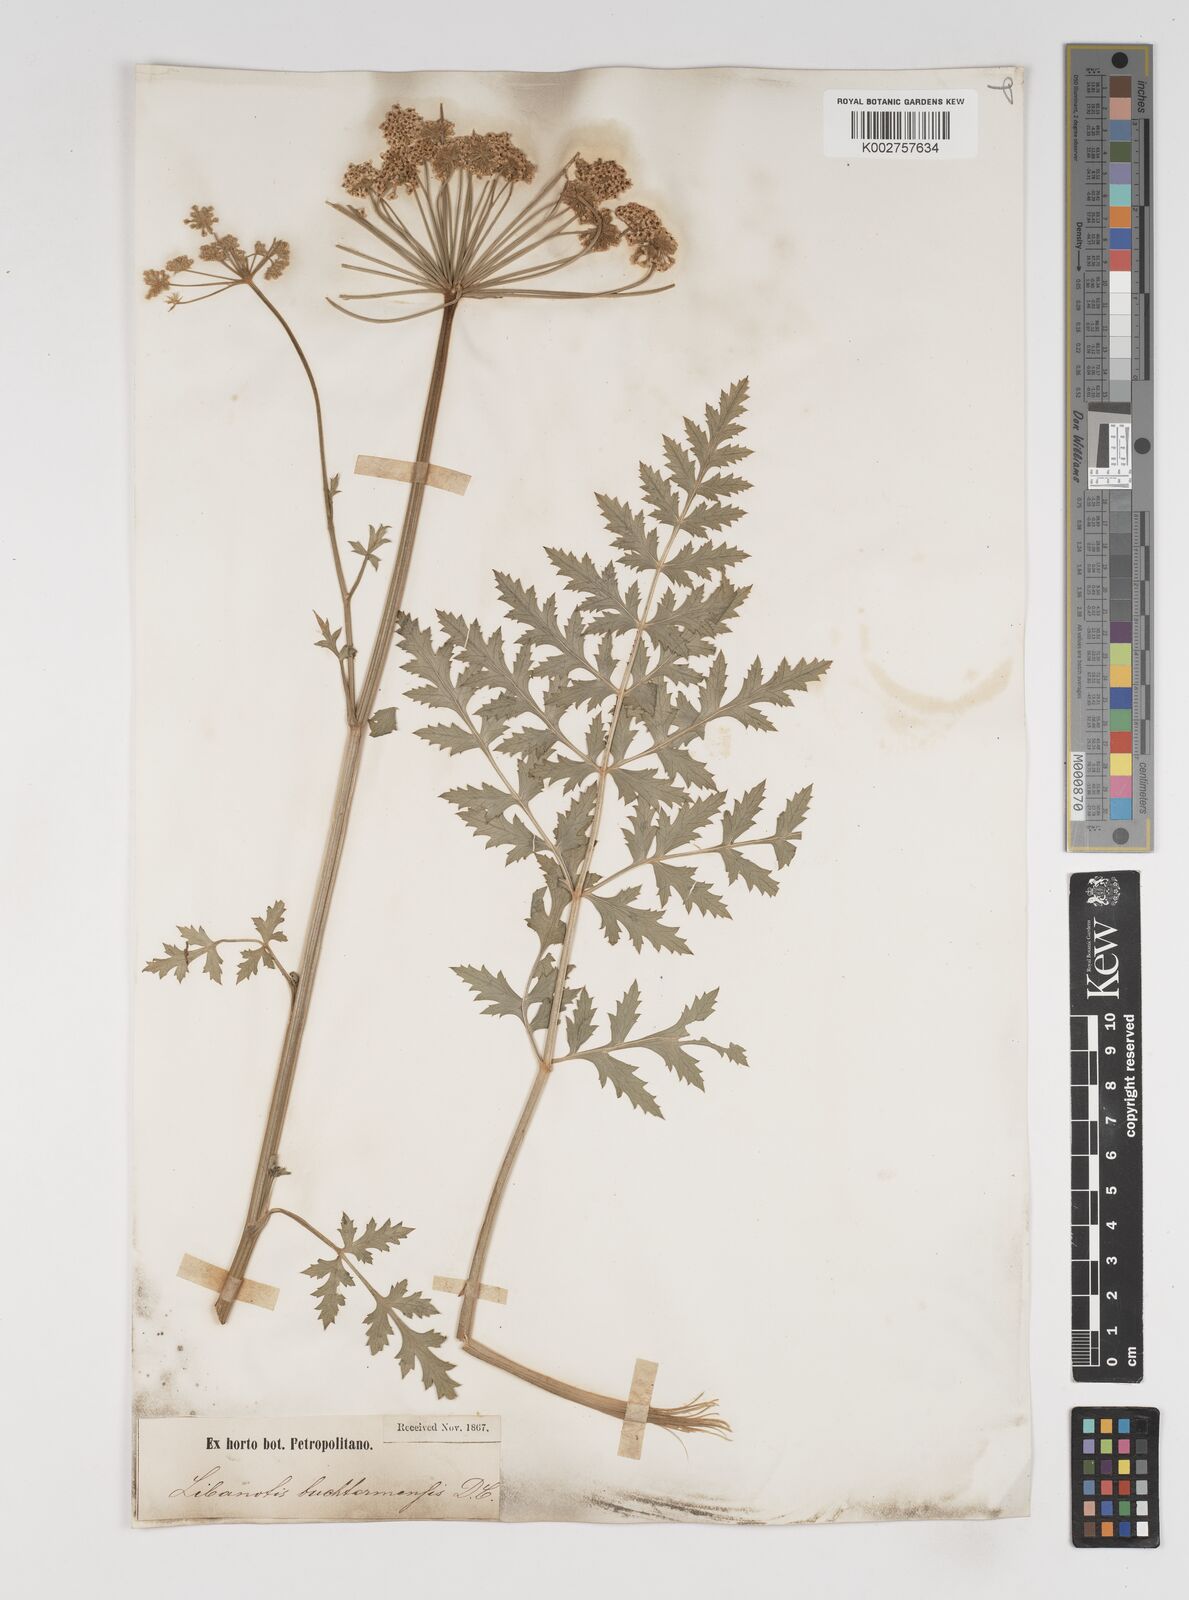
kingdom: Plantae
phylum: Tracheophyta
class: Magnoliopsida
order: Apiales
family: Apiaceae
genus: Seseli
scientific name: Seseli buchtormense
